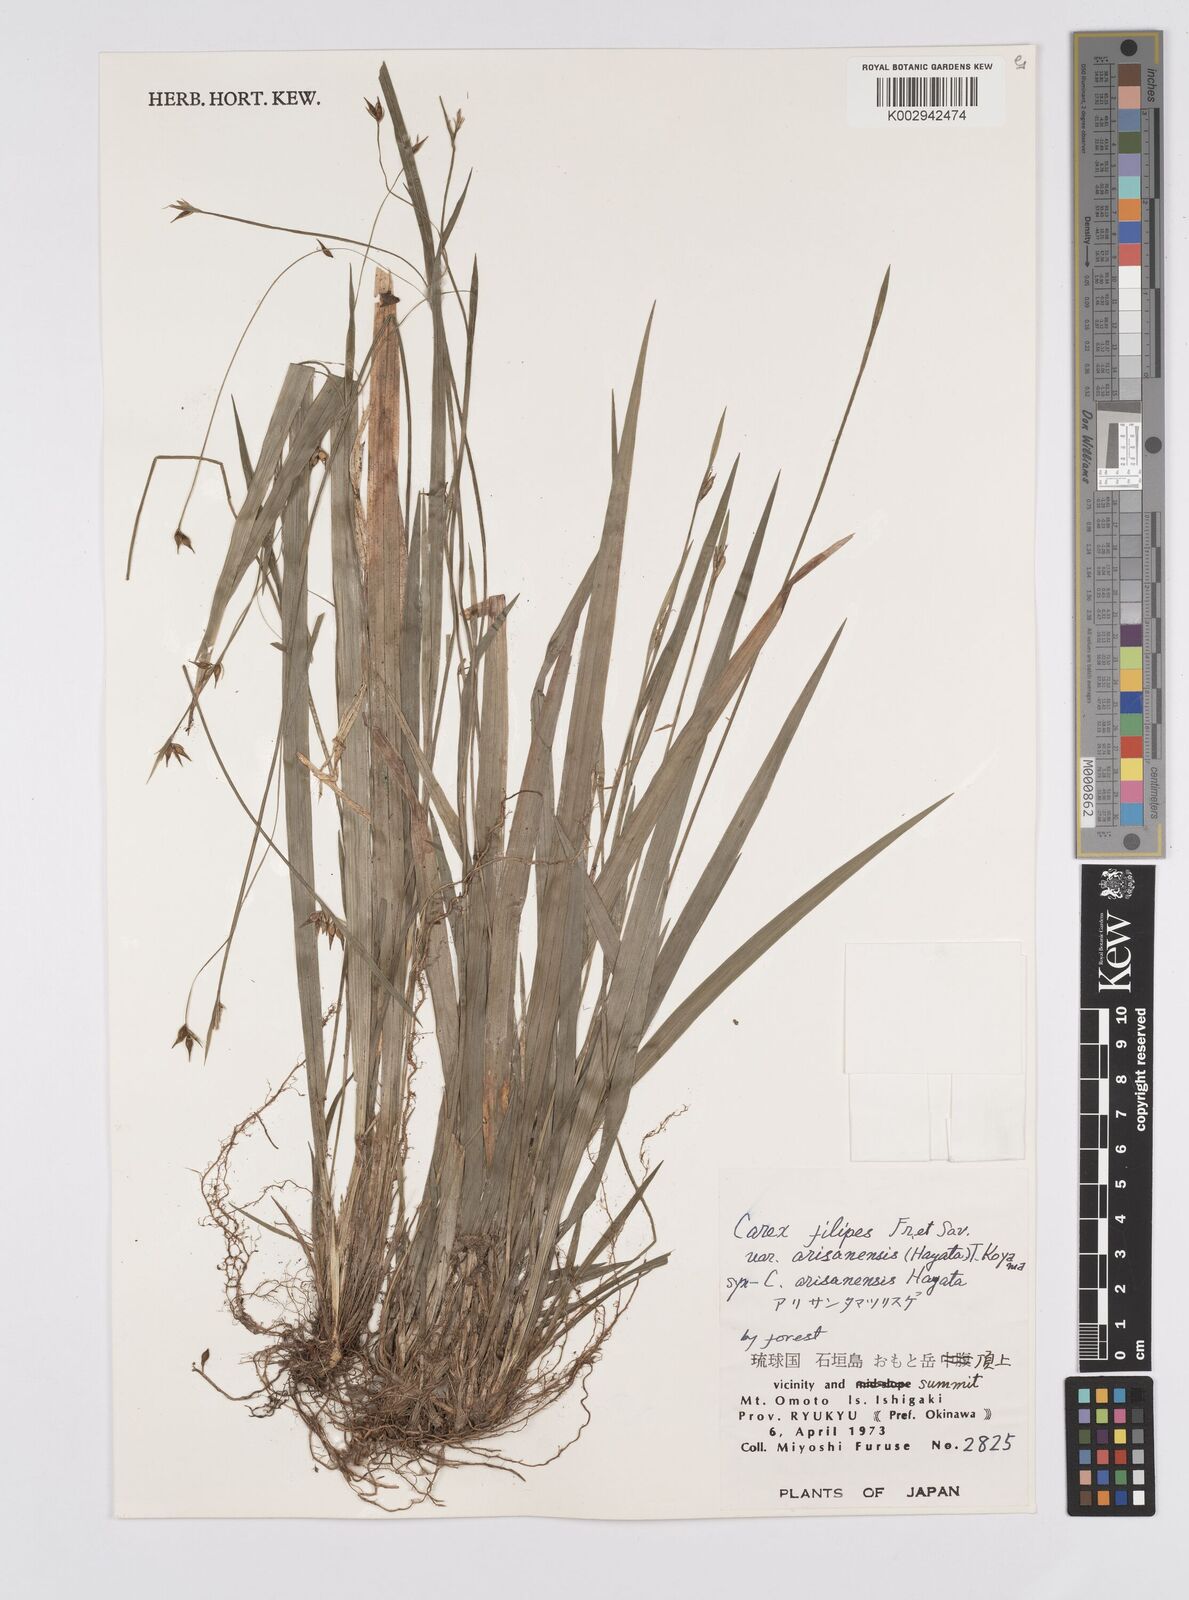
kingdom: Plantae
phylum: Tracheophyta
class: Liliopsida
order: Poales
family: Cyperaceae
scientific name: Cyperaceae
